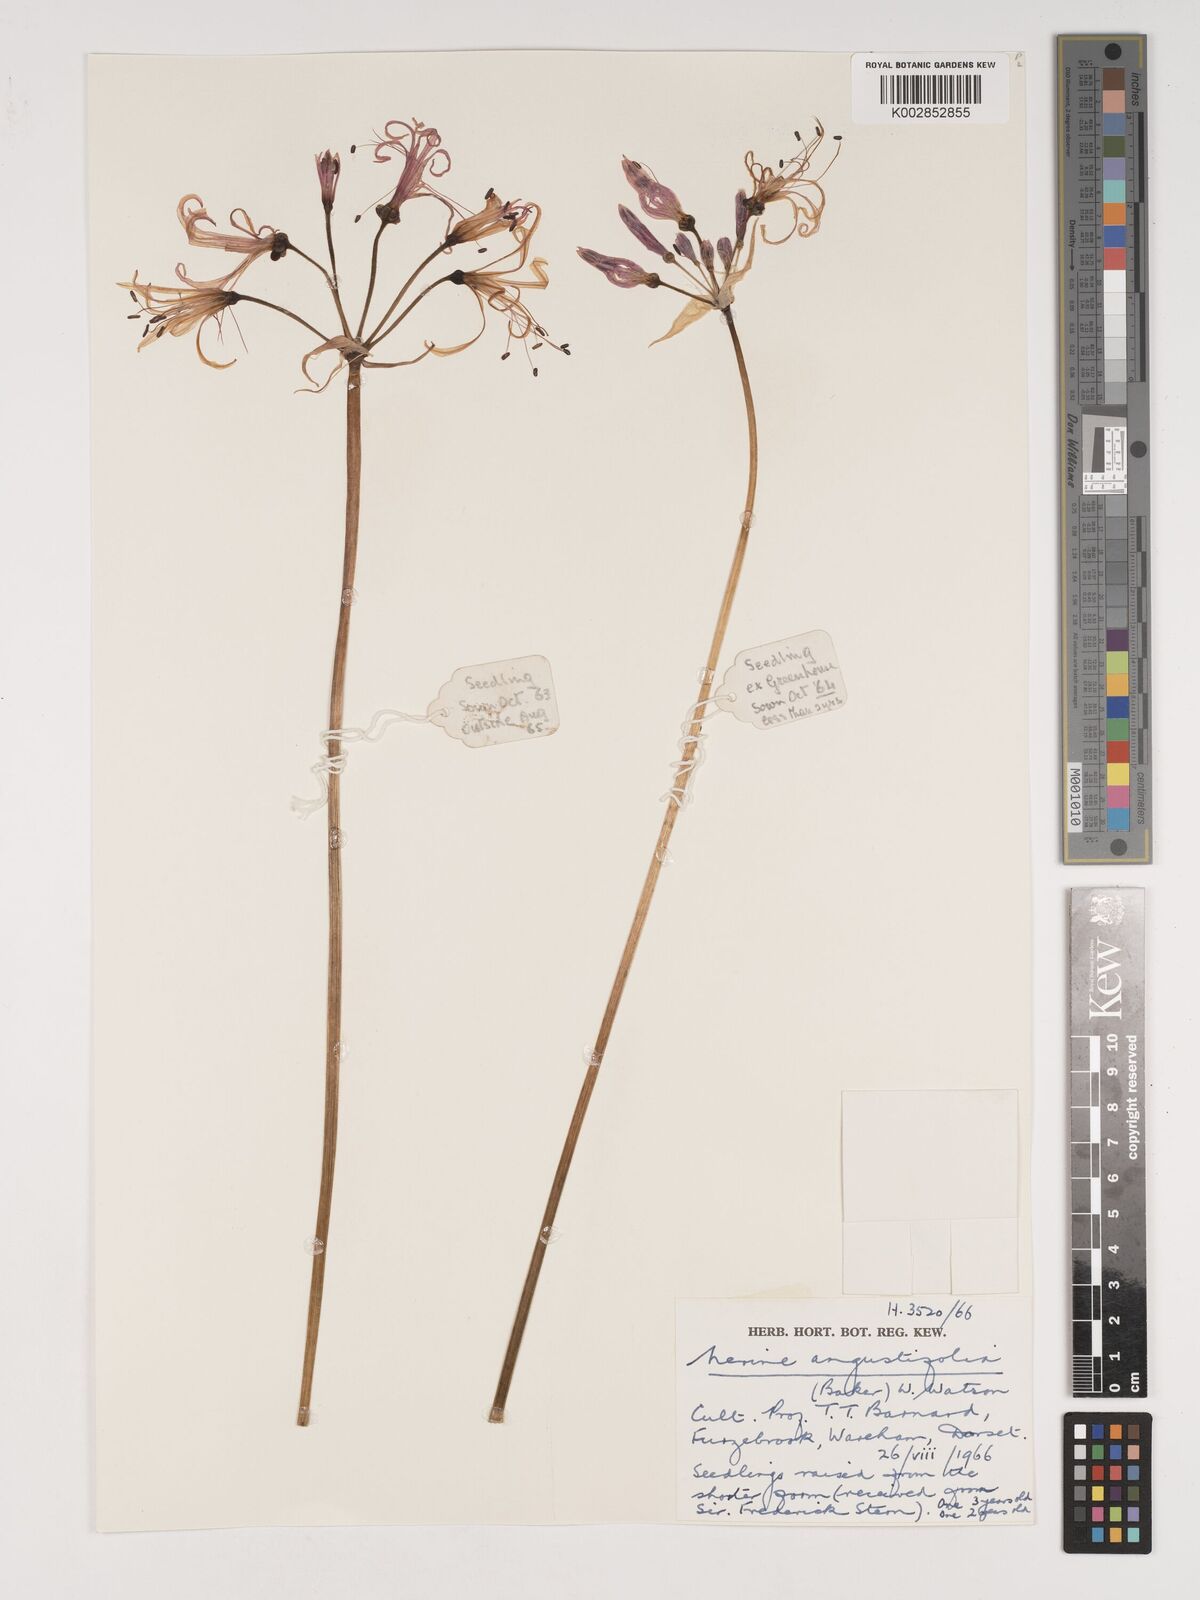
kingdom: Plantae
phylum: Tracheophyta
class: Liliopsida
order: Asparagales
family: Amaryllidaceae
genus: Nerine
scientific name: Nerine angustifolia
